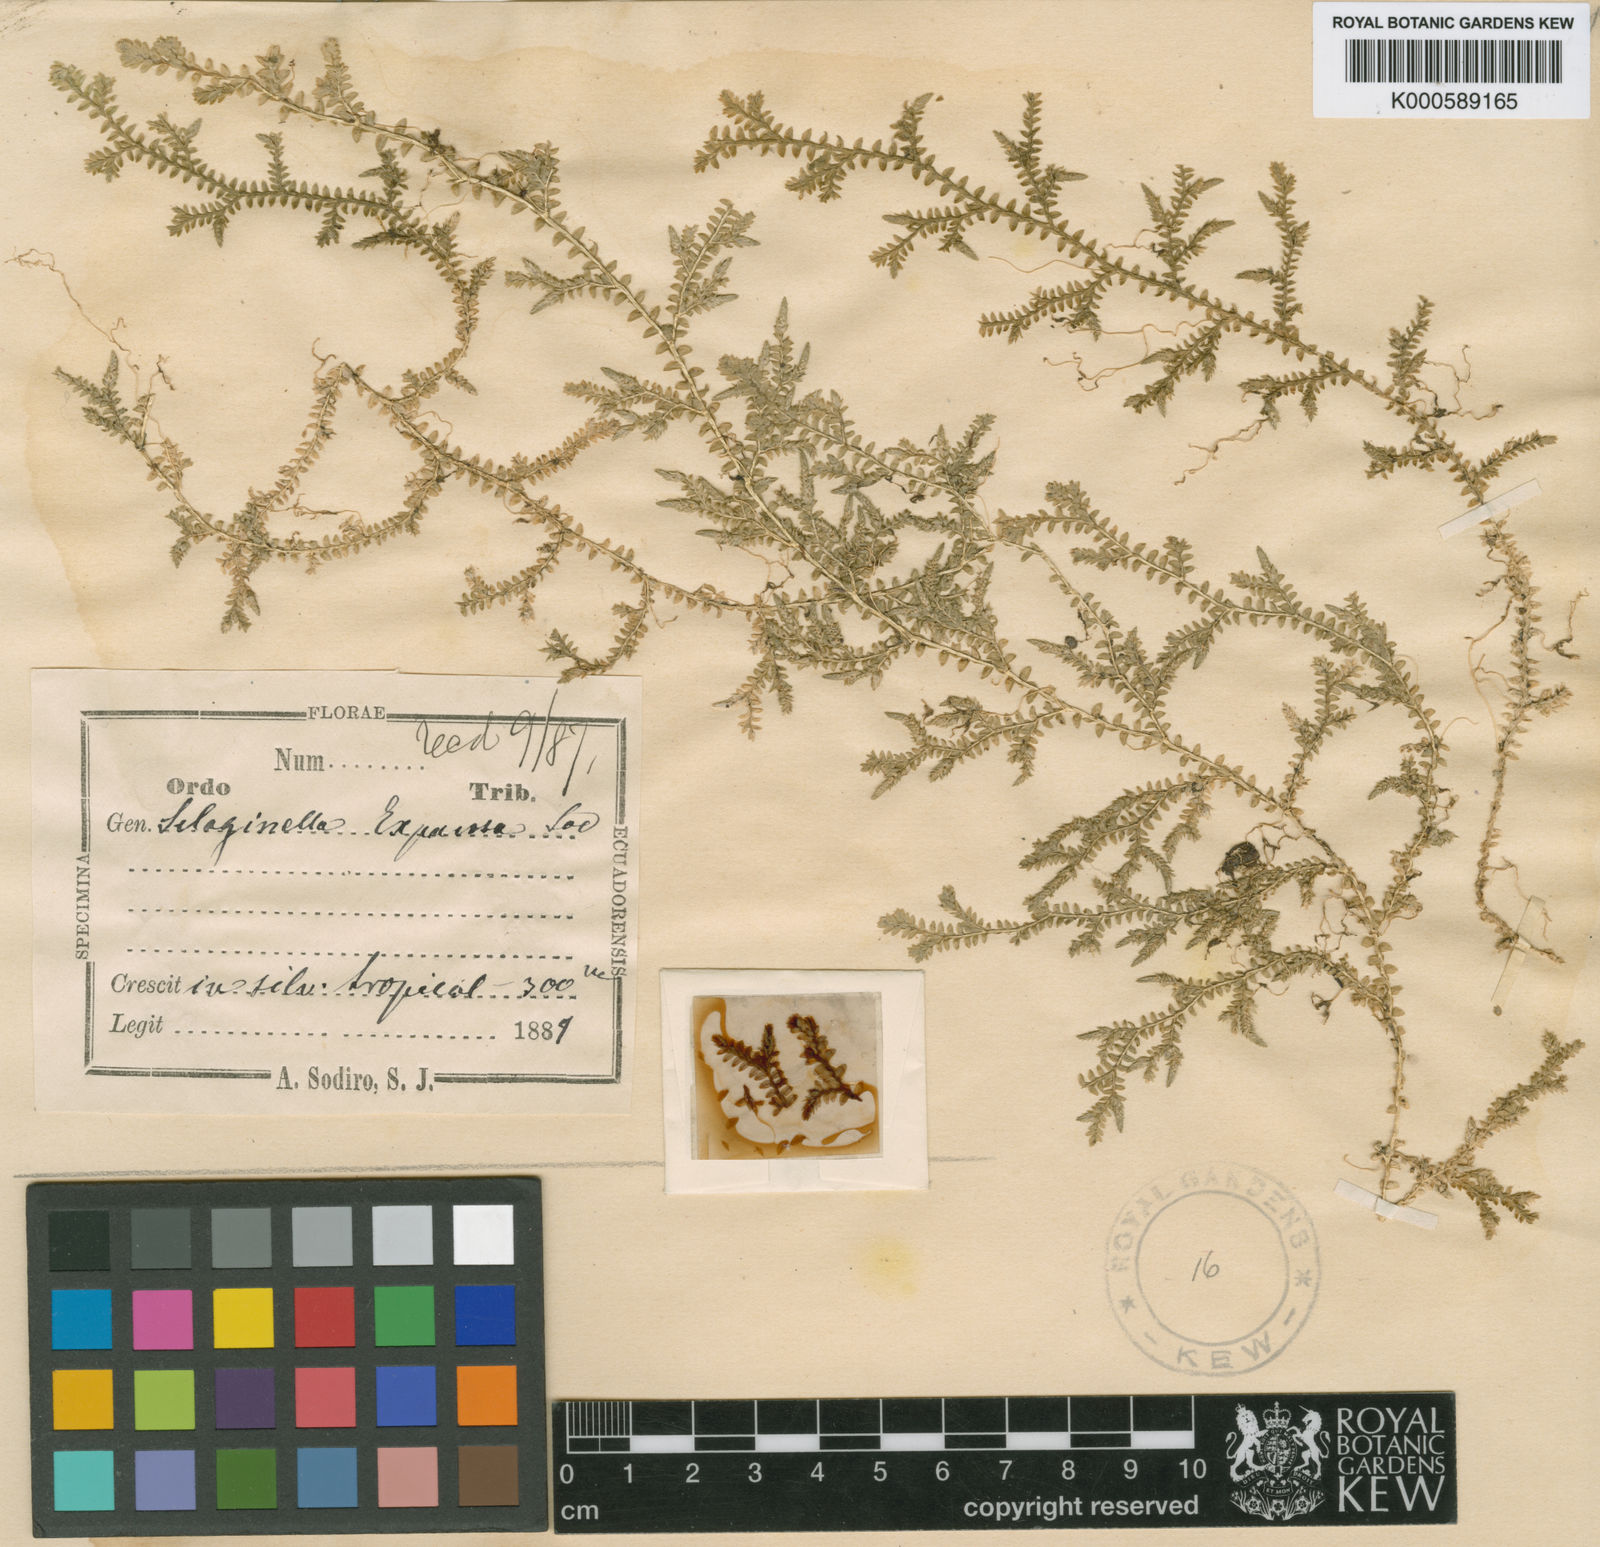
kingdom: Plantae
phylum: Tracheophyta
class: Lycopodiopsida
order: Selaginellales
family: Selaginellaceae
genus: Selaginella
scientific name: Selaginella expansa
